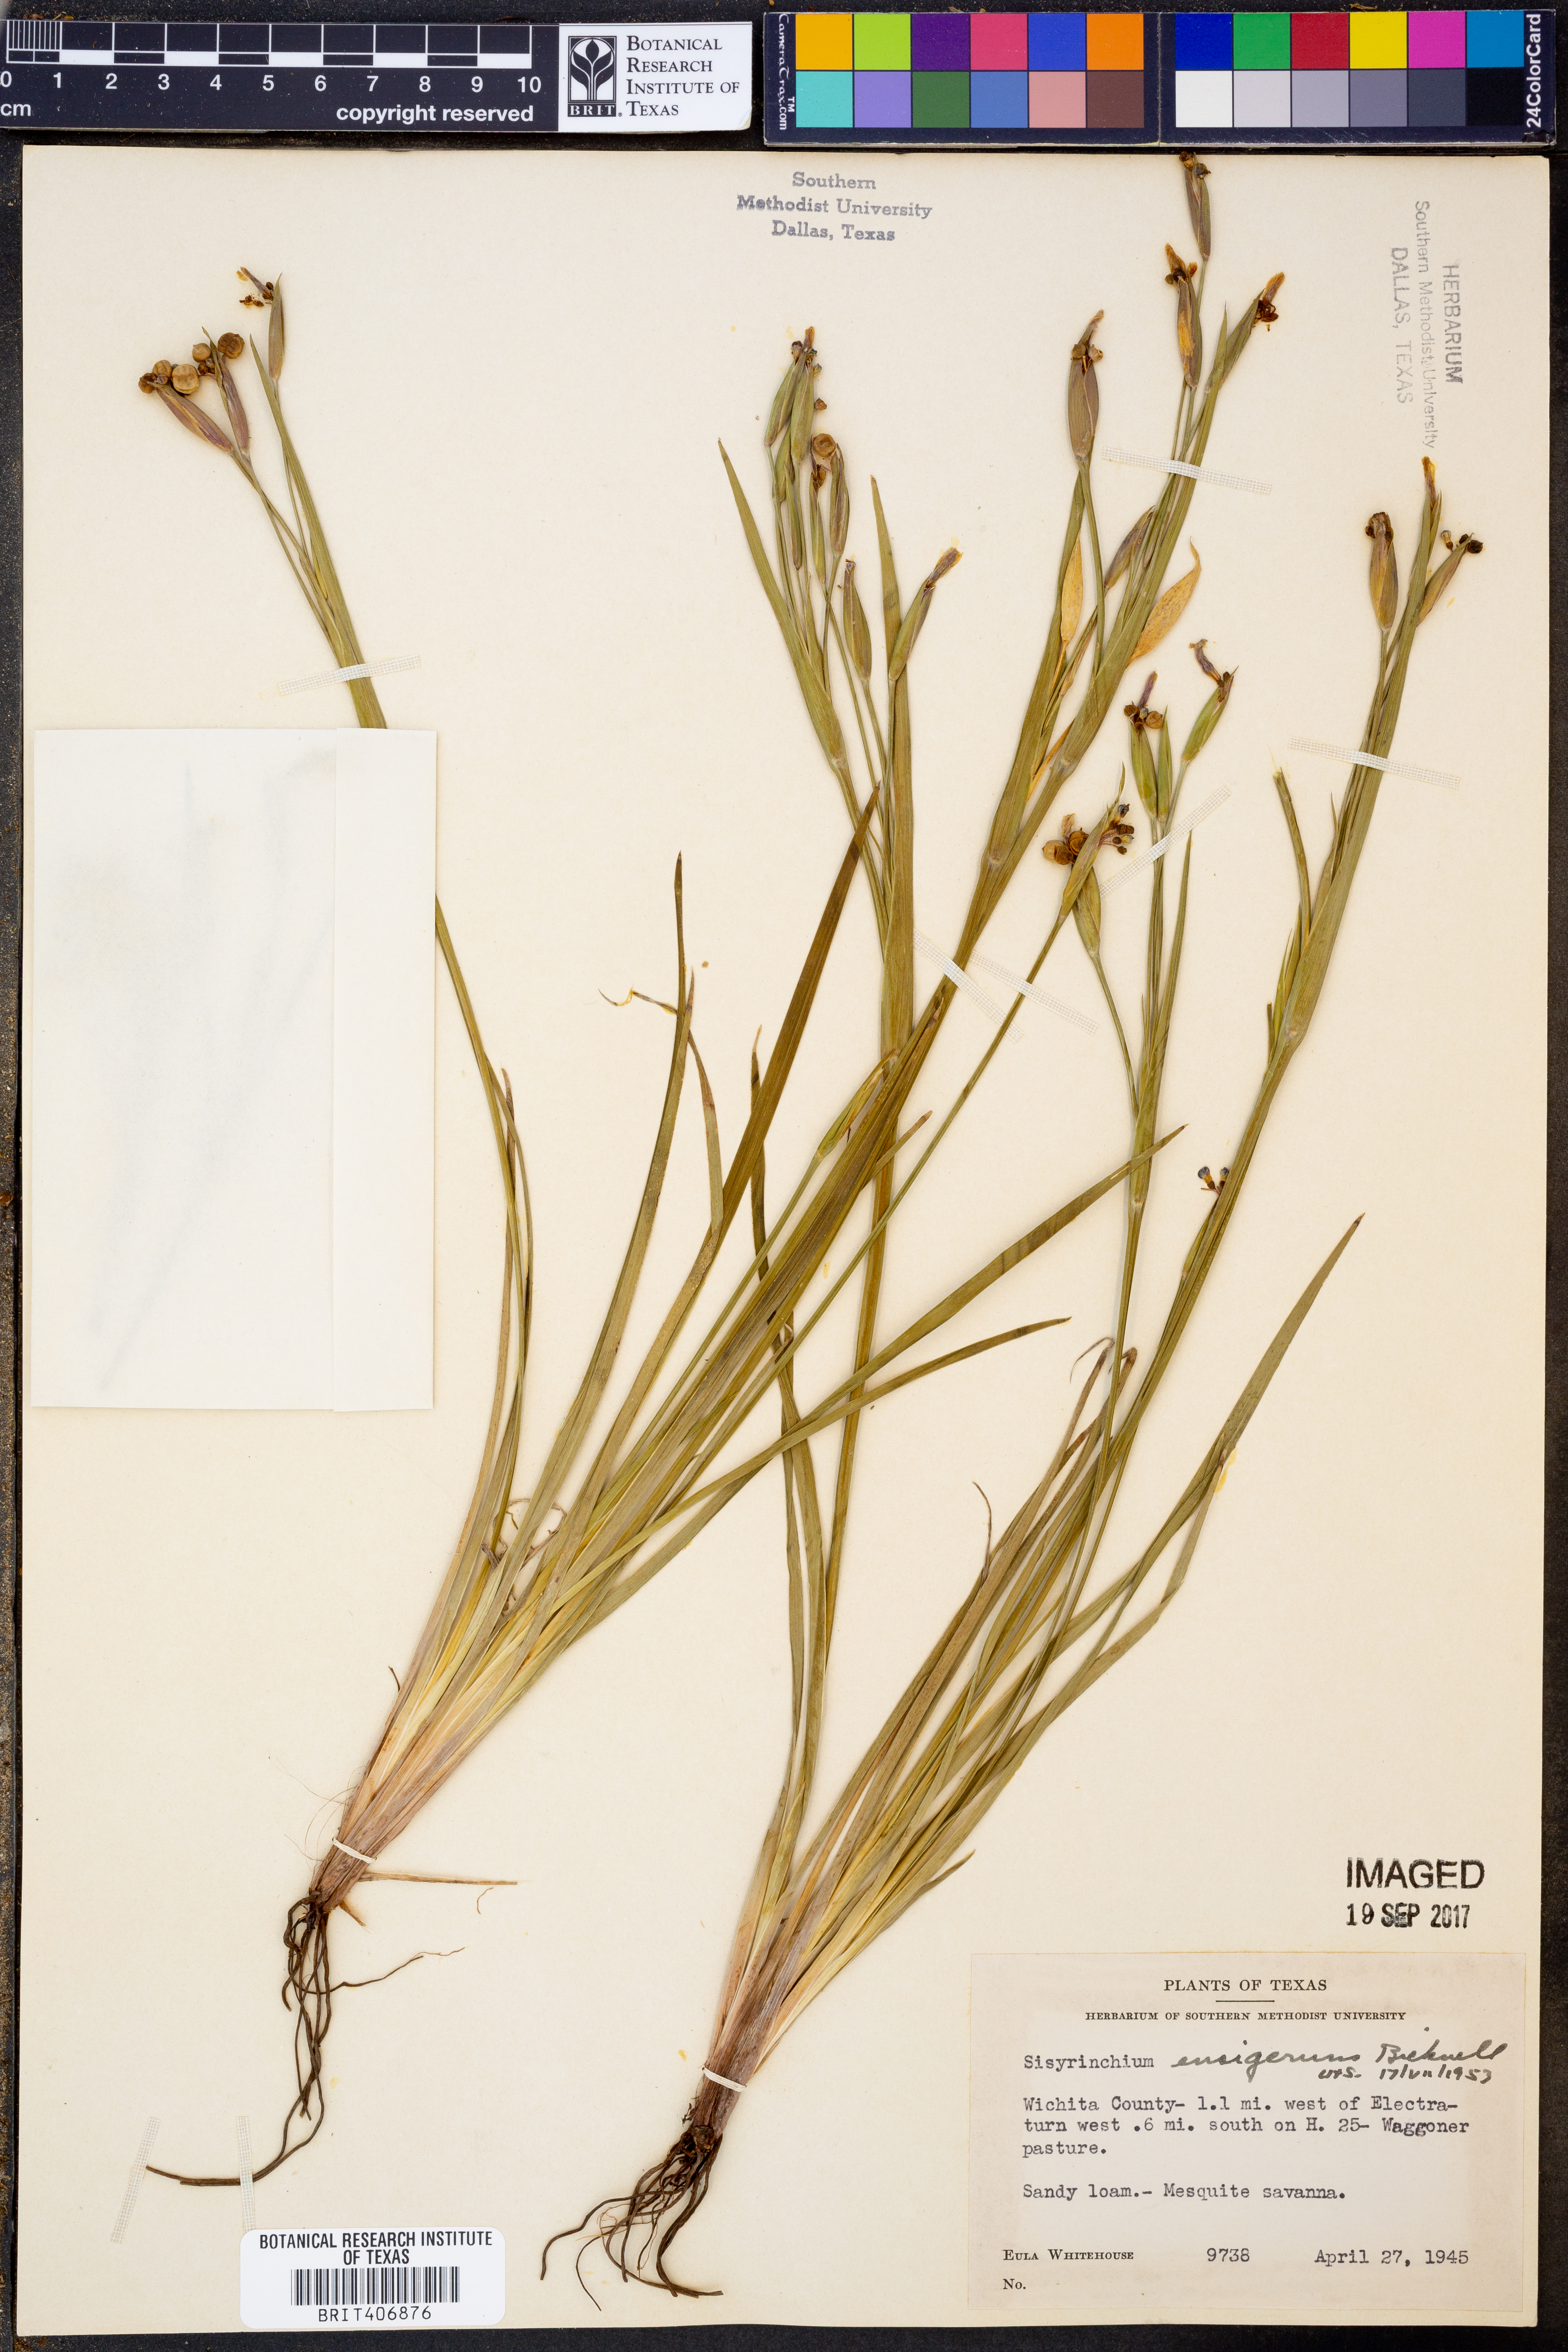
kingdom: Plantae
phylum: Tracheophyta
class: Liliopsida
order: Asparagales
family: Iridaceae
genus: Sisyrinchium
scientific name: Sisyrinchium ensigerum
